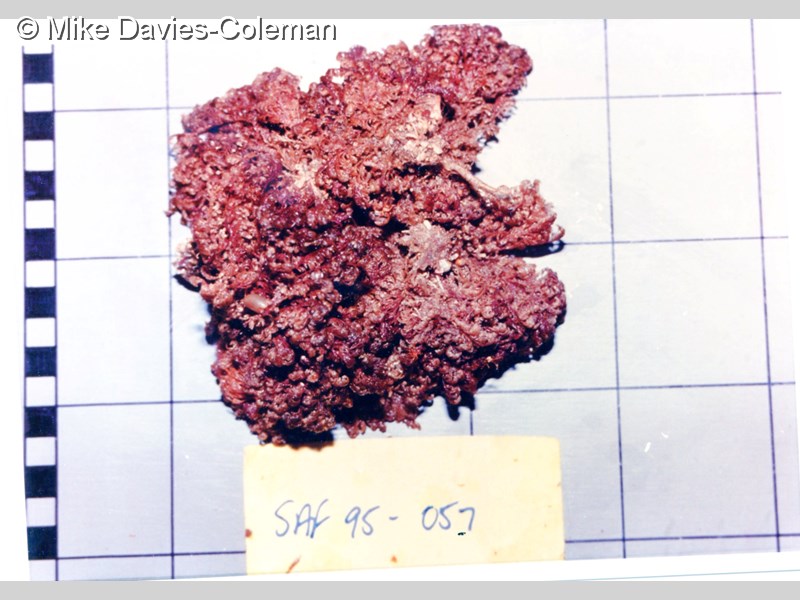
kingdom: Animalia
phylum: Bryozoa
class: Gymnolaemata
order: Cheilostomatida
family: Candidae
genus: Menipea
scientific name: Menipea crispa
